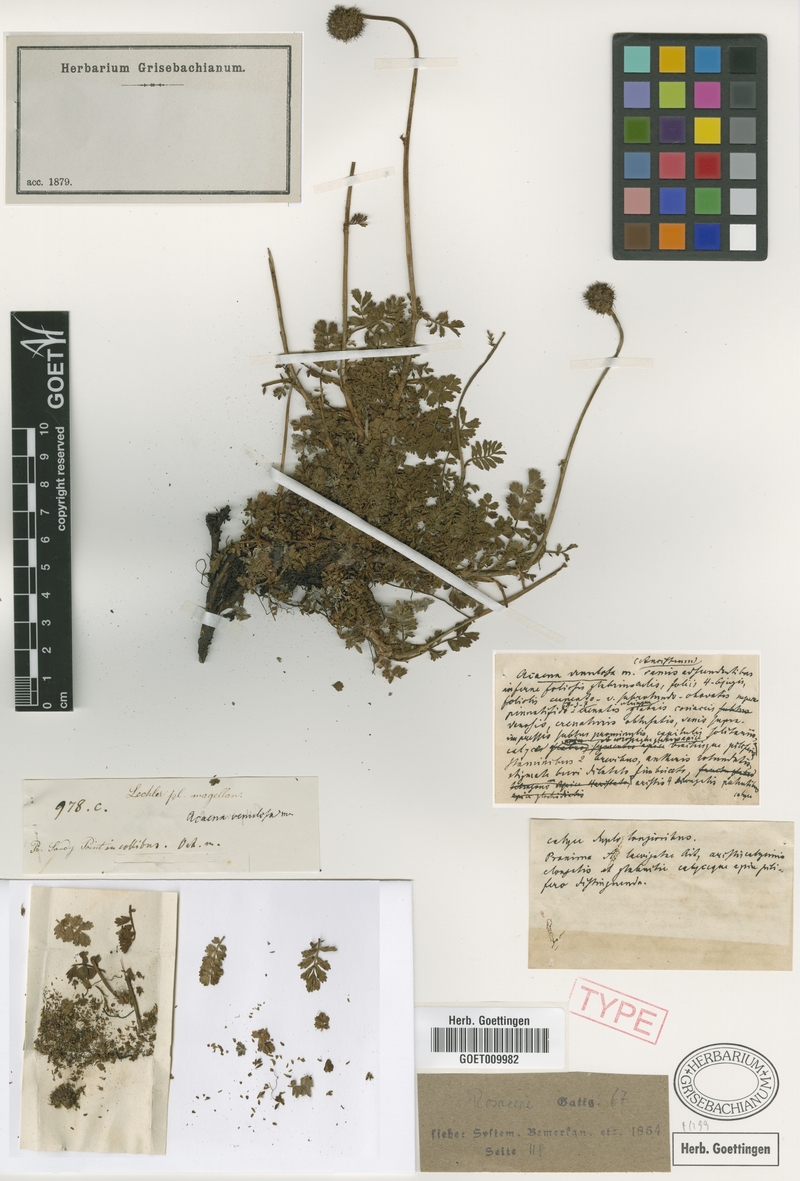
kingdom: Plantae
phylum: Tracheophyta
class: Magnoliopsida
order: Rosales
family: Rosaceae
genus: Acaena
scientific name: Acaena magellanica
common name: New zealand burr
